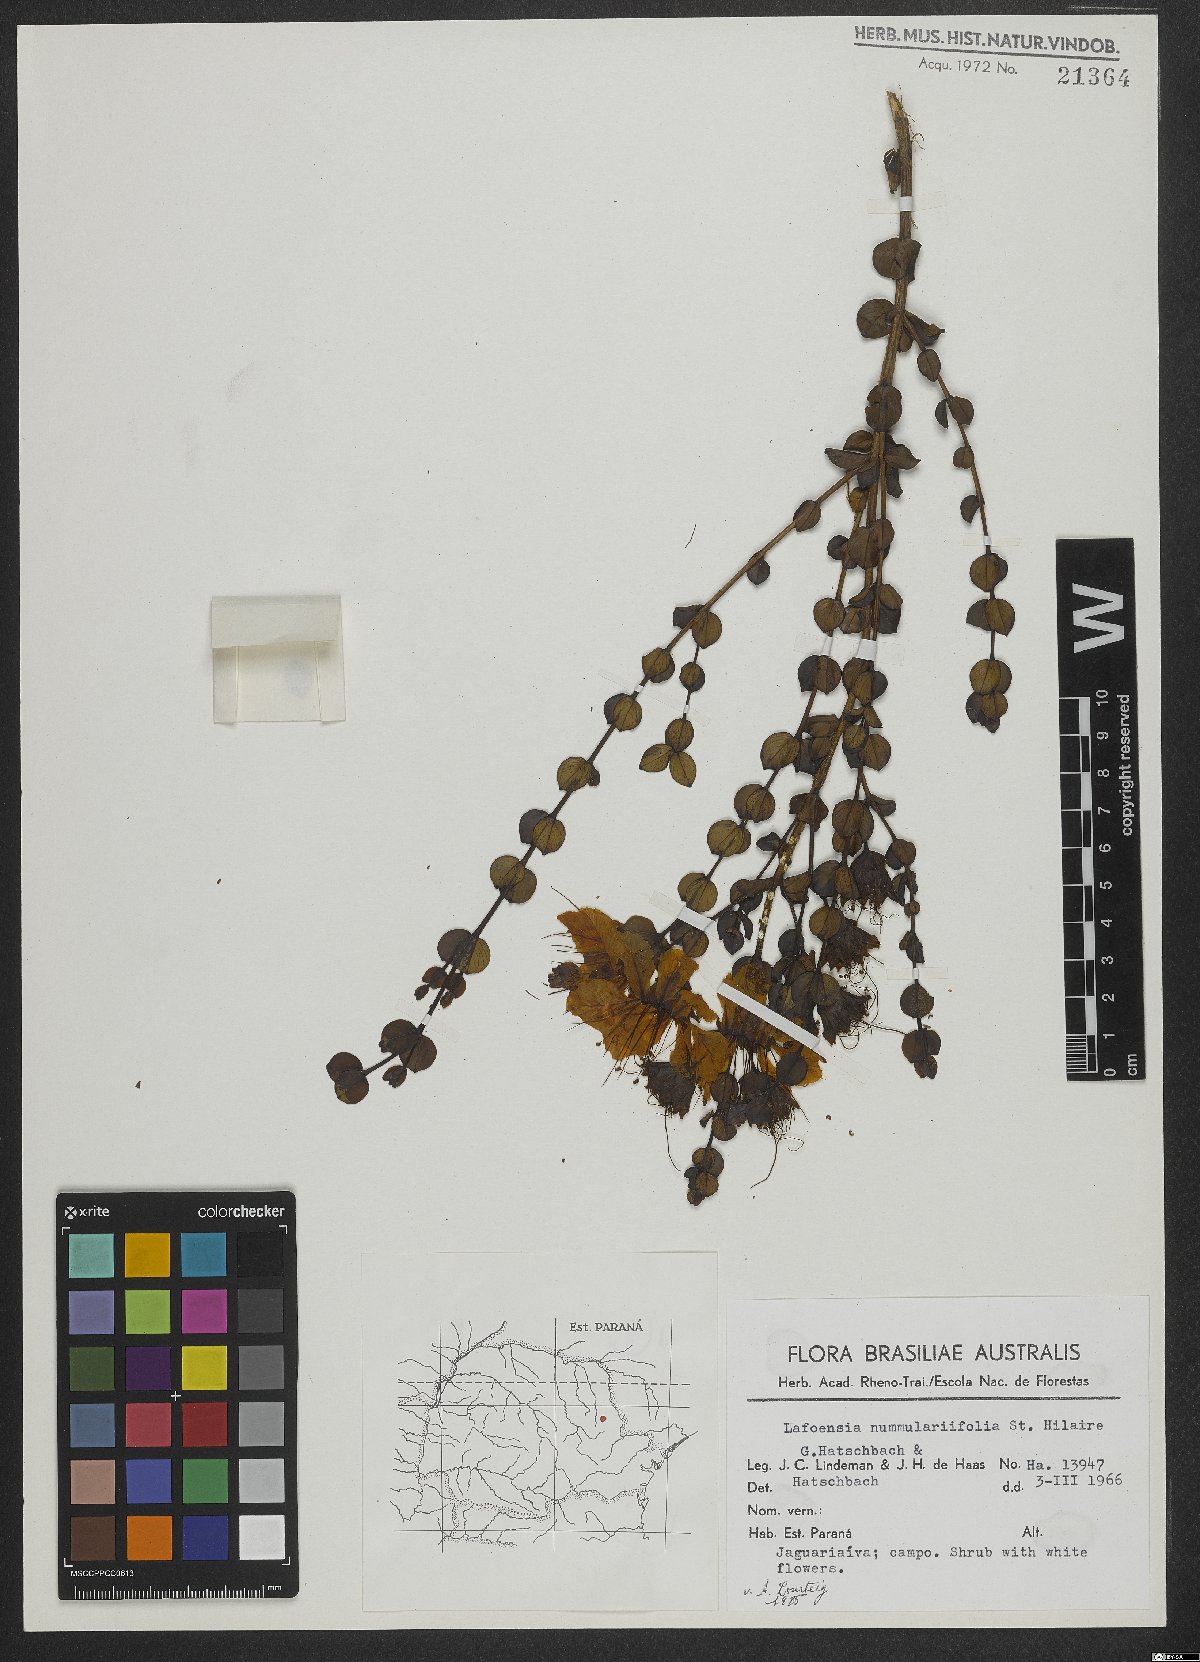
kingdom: Plantae
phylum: Tracheophyta
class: Magnoliopsida
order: Myrtales
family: Lythraceae
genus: Lafoensia
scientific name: Lafoensia nummularifolia
